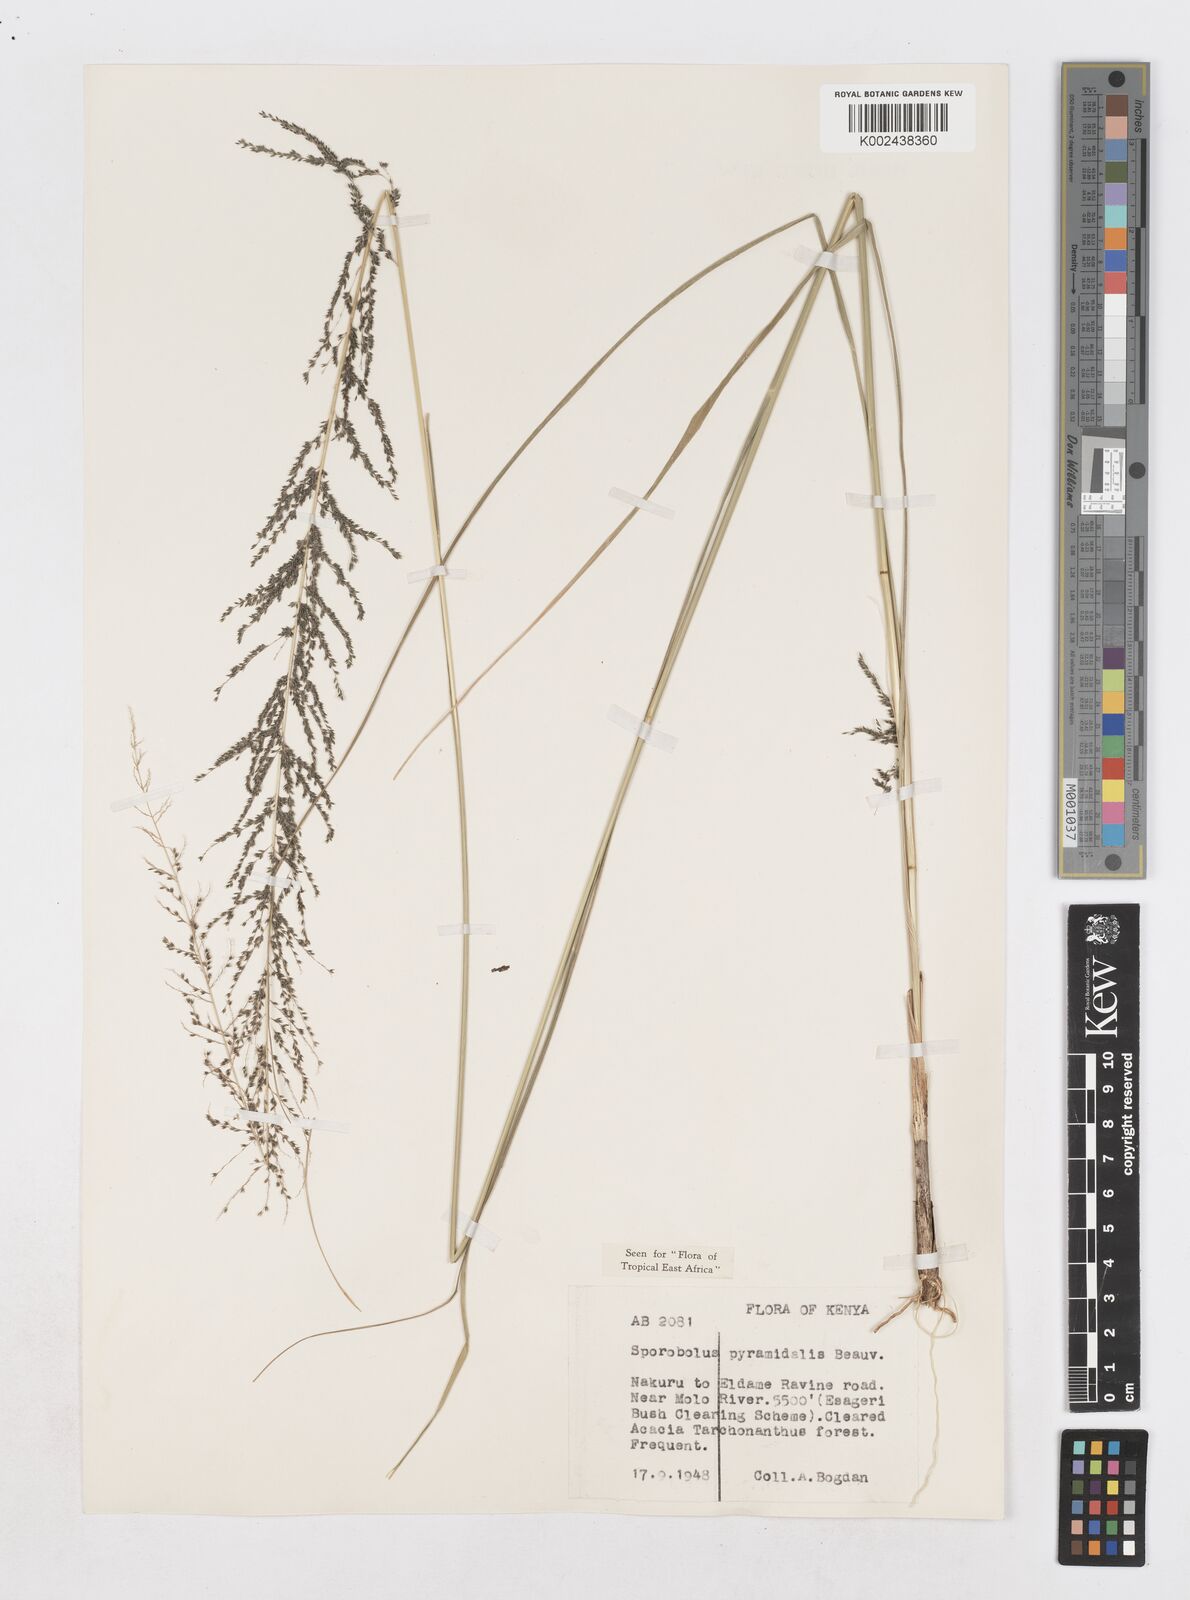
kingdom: Plantae
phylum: Tracheophyta
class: Liliopsida
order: Poales
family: Poaceae
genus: Sporobolus
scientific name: Sporobolus pyramidalis
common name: West indian dropseed
